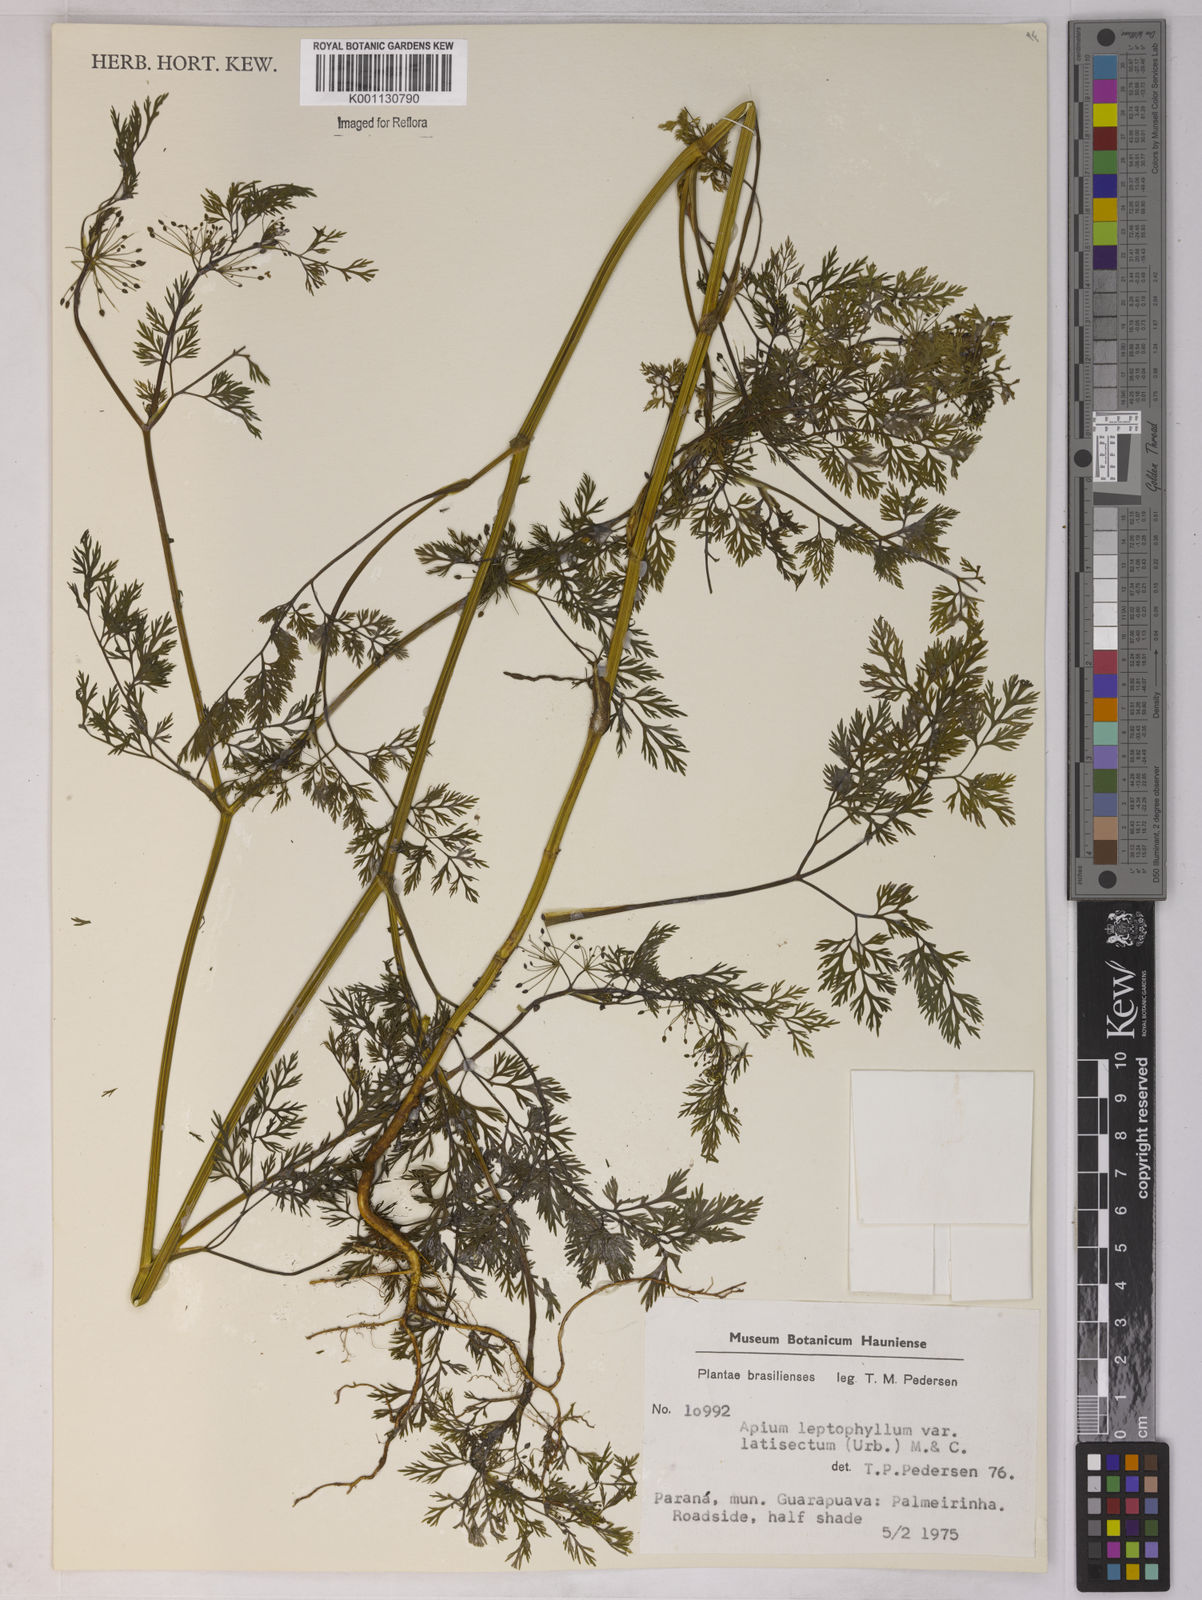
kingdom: Plantae
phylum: Tracheophyta
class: Magnoliopsida
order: Apiales
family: Apiaceae
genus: Apium
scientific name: Apium
